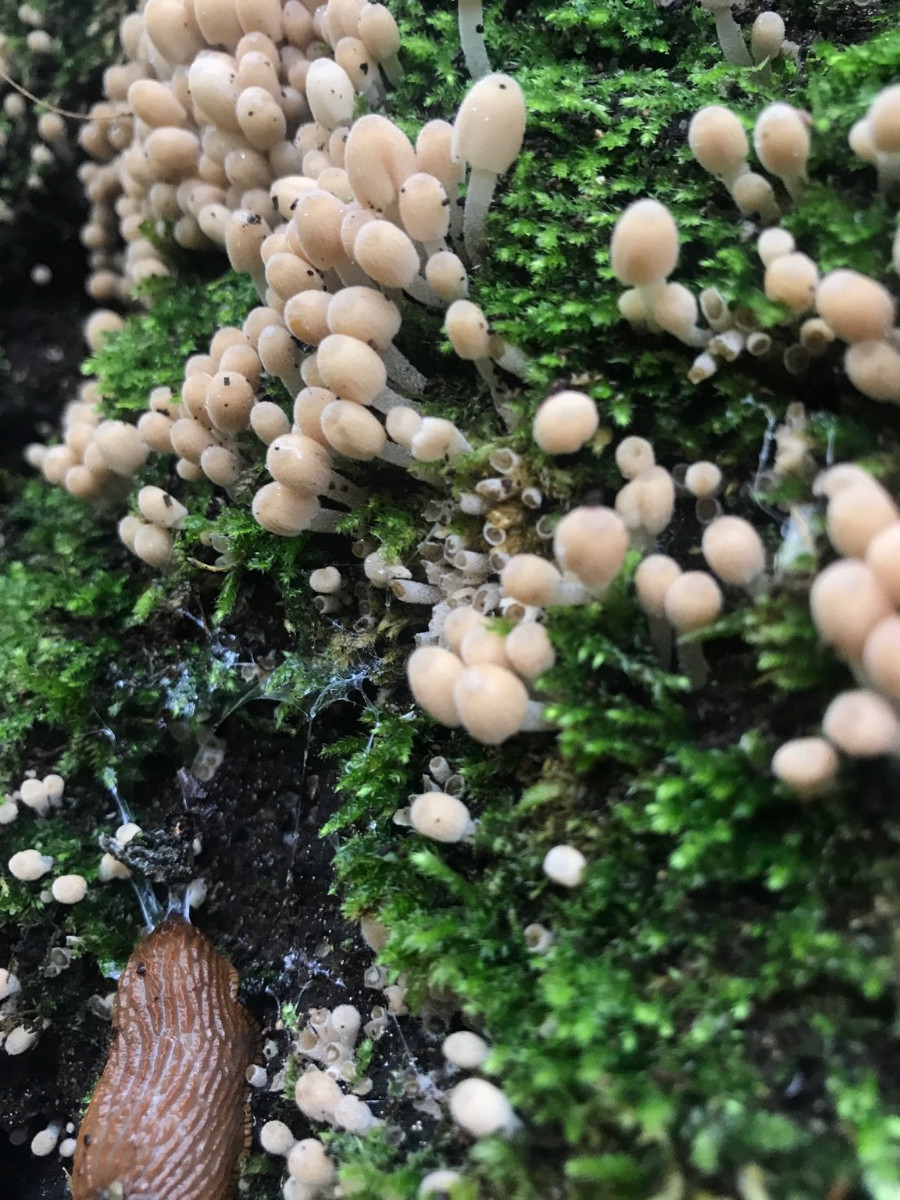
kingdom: Fungi
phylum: Basidiomycota
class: Agaricomycetes
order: Agaricales
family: Psathyrellaceae
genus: Coprinellus
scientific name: Coprinellus disseminatus
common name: bredsået blækhat
